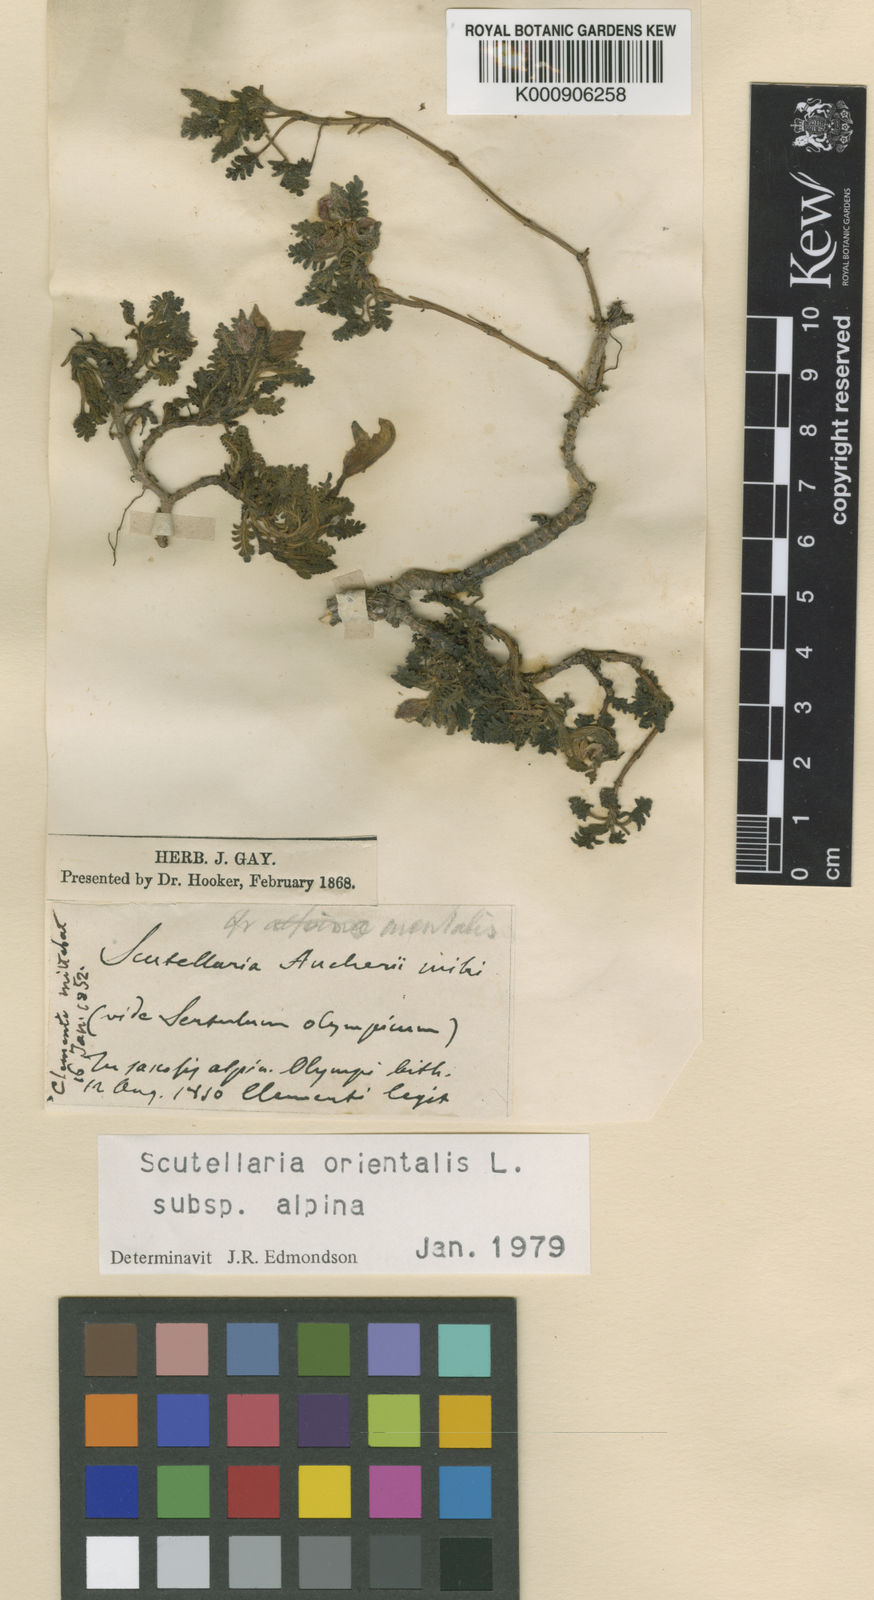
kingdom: Plantae
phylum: Tracheophyta
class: Magnoliopsida
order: Lamiales
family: Lamiaceae
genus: Scutellaria
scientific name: Scutellaria orientalis
